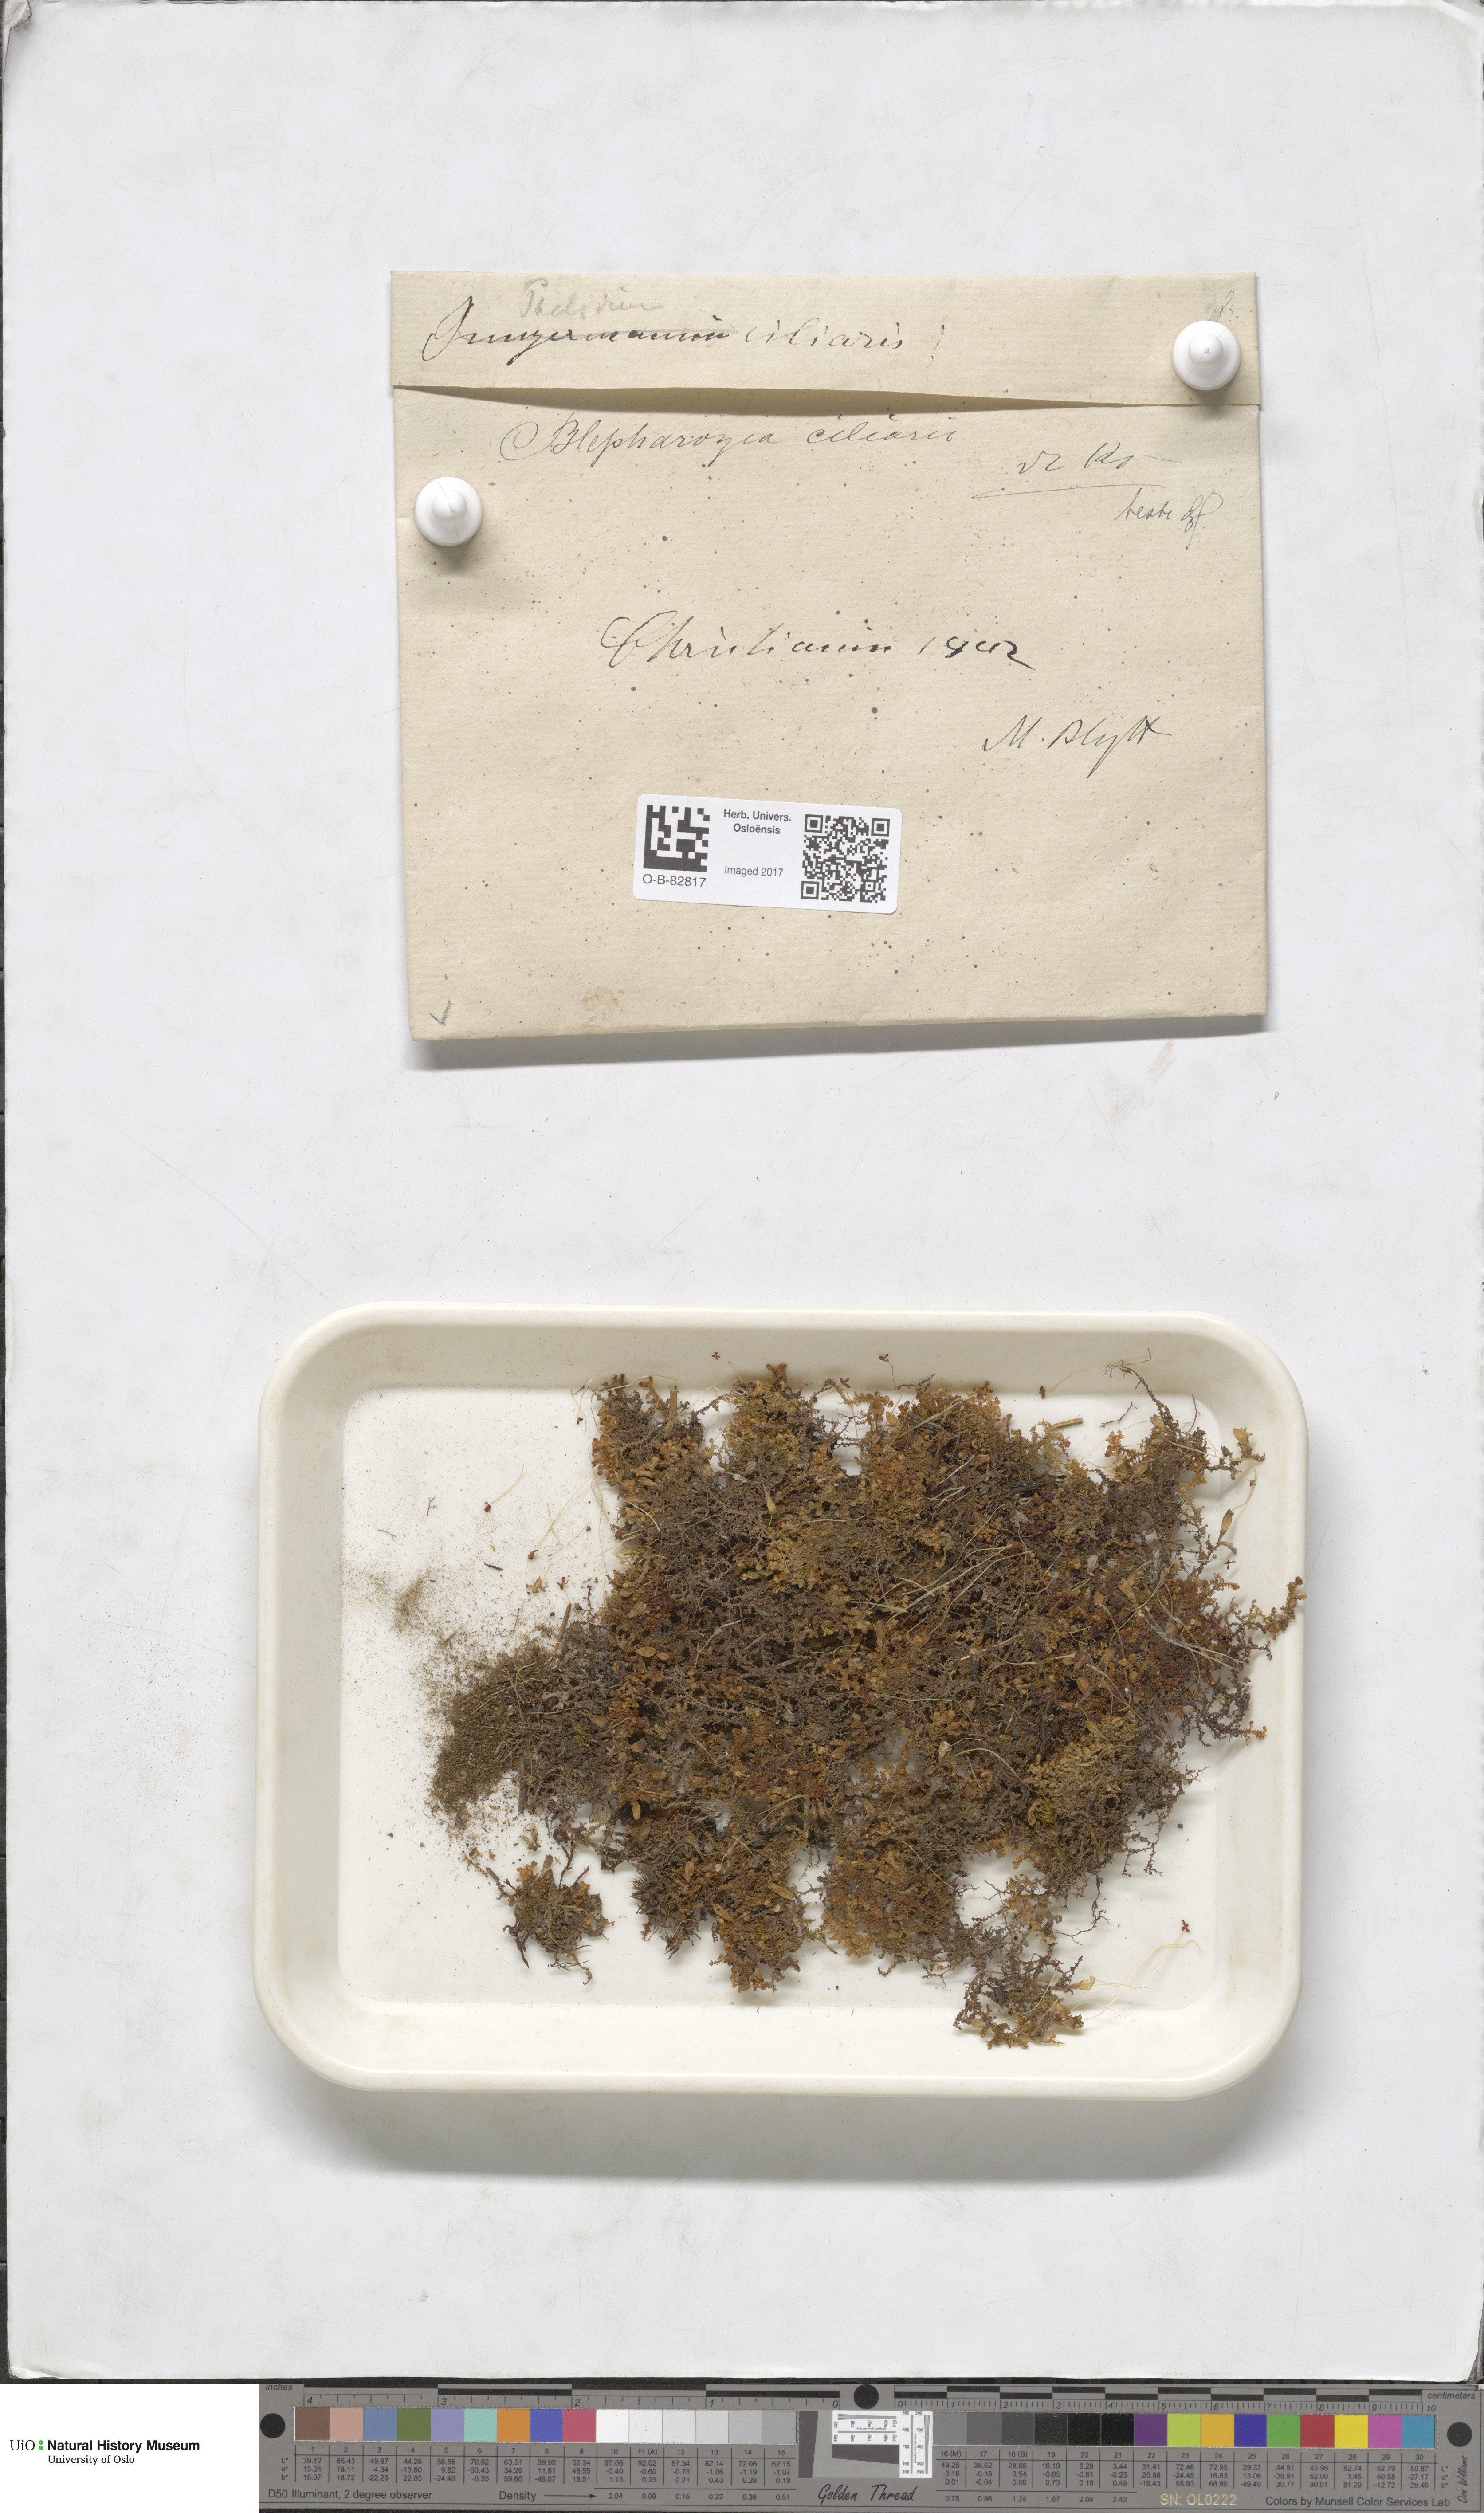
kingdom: Plantae
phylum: Marchantiophyta
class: Jungermanniopsida
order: Ptilidiales
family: Ptilidiaceae
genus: Ptilidium
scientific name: Ptilidium ciliare
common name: Ciliate fringewort
